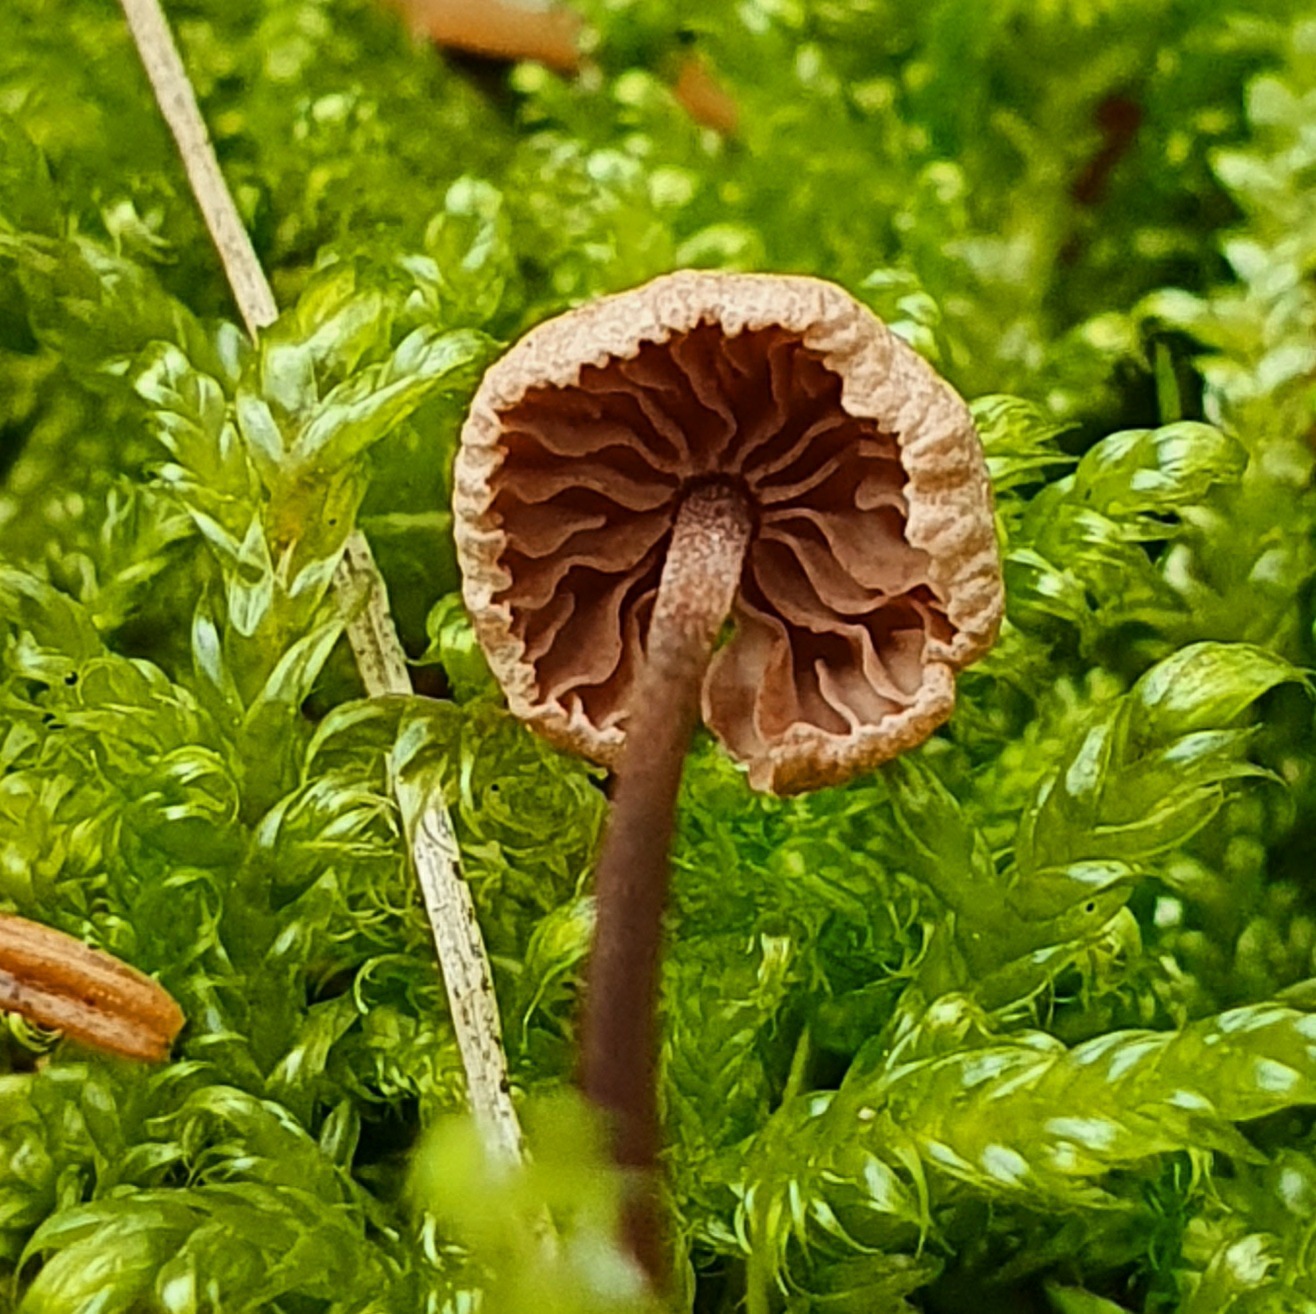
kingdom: Fungi
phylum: Basidiomycota
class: Agaricomycetes
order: Agaricales
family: Omphalotaceae
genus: Paragymnopus
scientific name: Paragymnopus perforans
